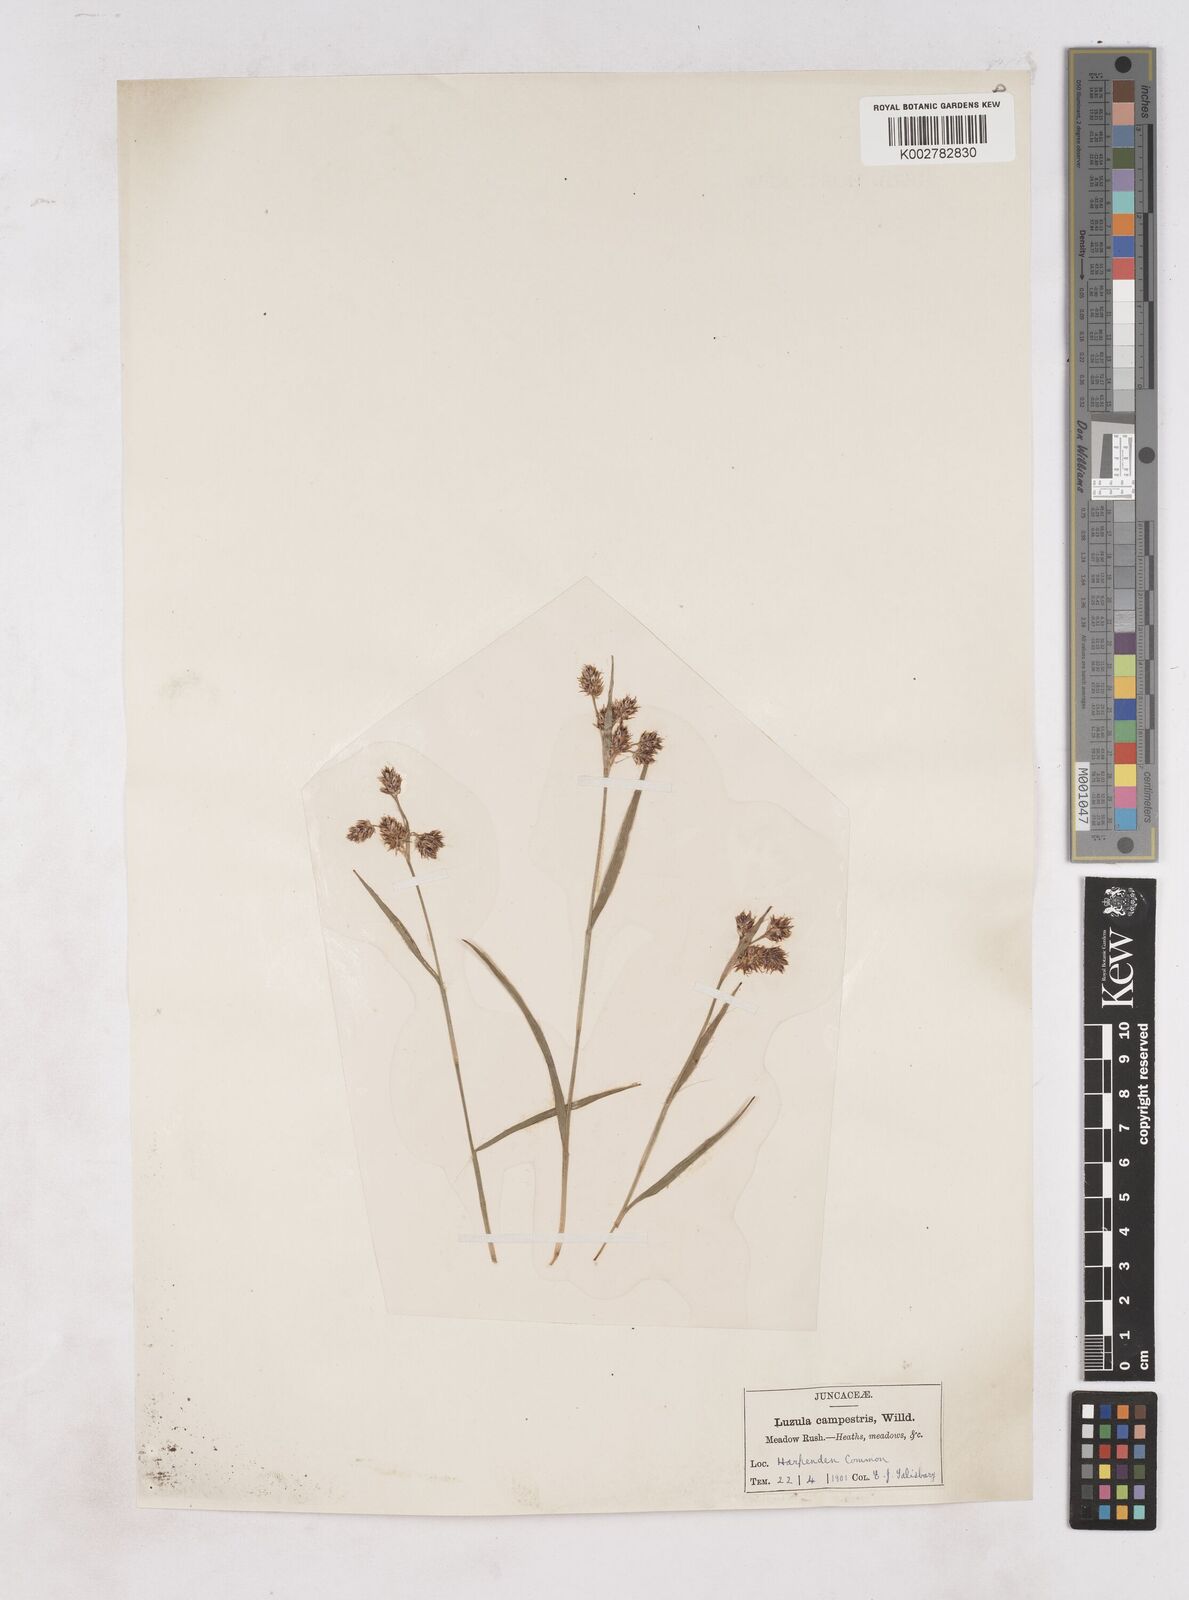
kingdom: Plantae
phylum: Tracheophyta
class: Liliopsida
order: Poales
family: Juncaceae
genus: Luzula
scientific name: Luzula campestris
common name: Field wood-rush
